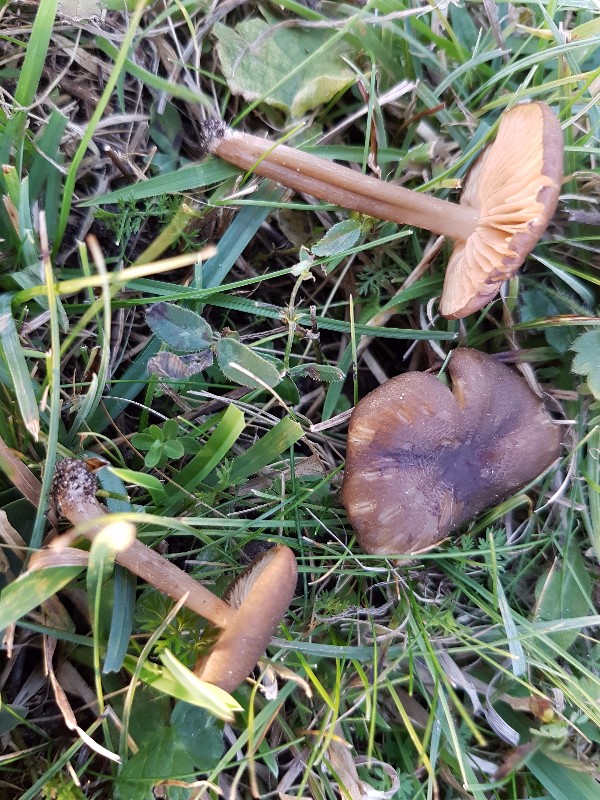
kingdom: Fungi
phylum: Basidiomycota
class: Agaricomycetes
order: Agaricales
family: Entolomataceae
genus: Entoloma
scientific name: Entoloma turci
